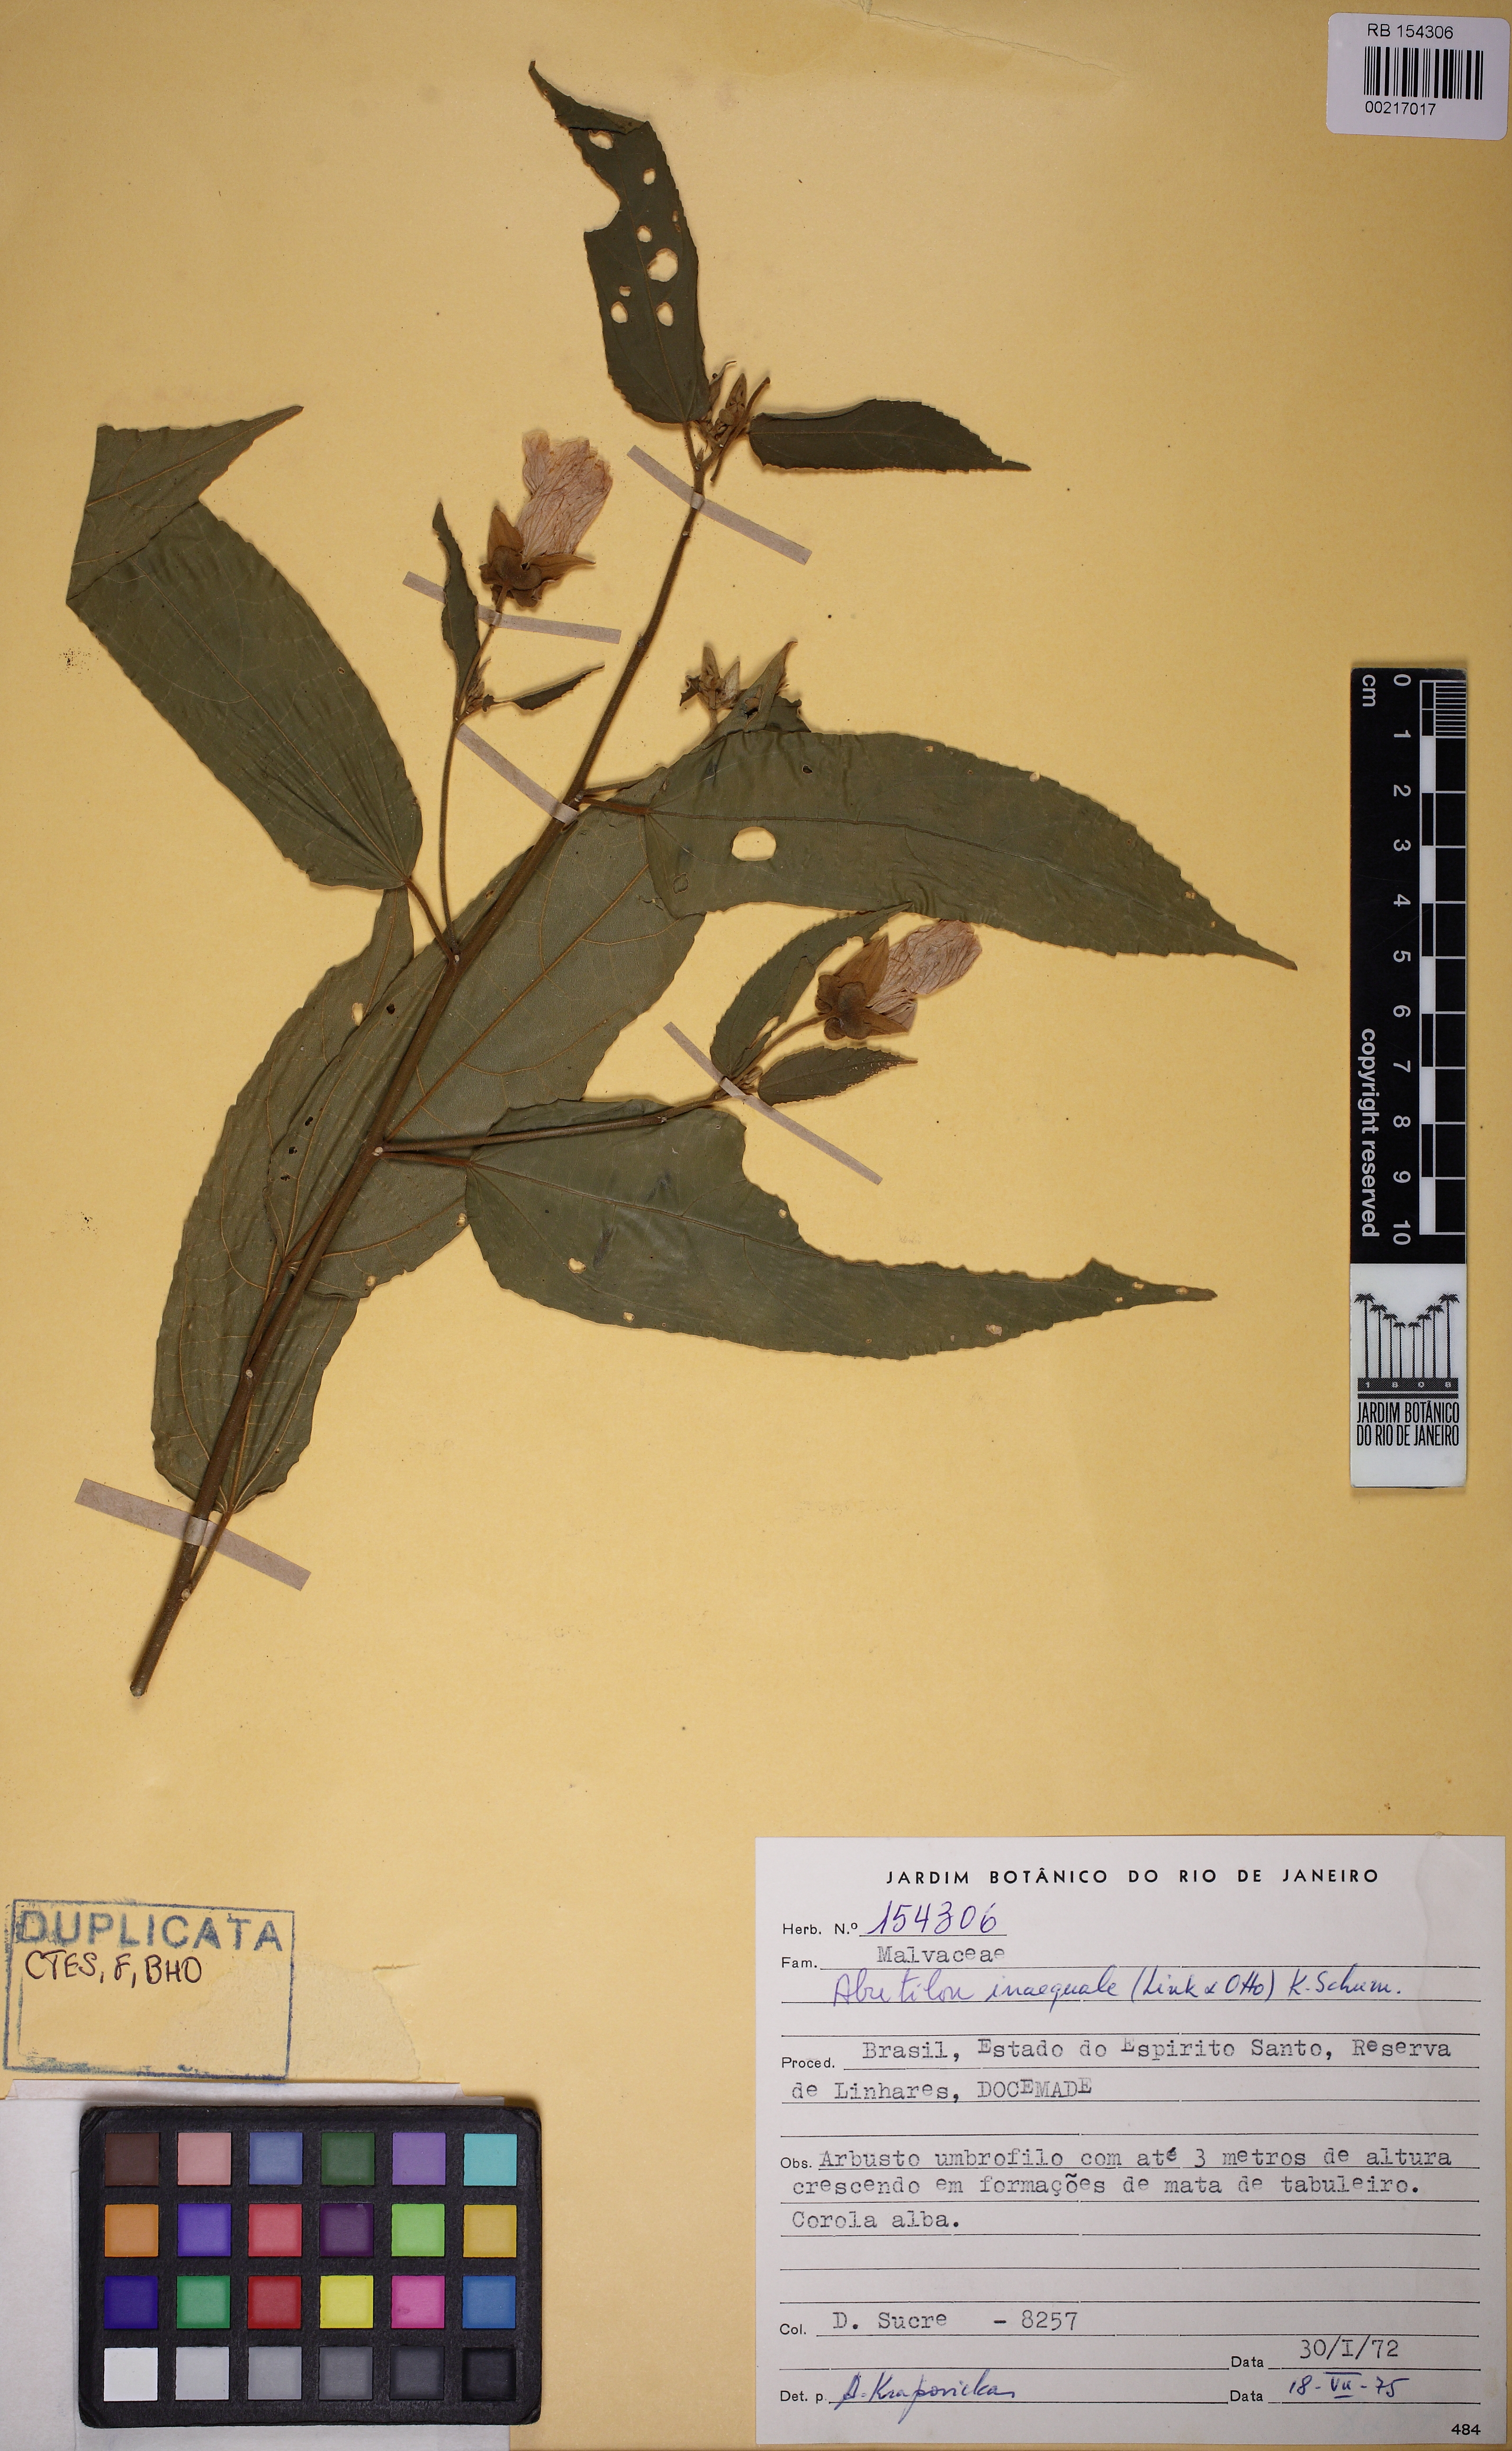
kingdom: Plantae
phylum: Tracheophyta
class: Magnoliopsida
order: Malvales
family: Malvaceae
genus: Callianthe
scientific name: Callianthe inaequalis
